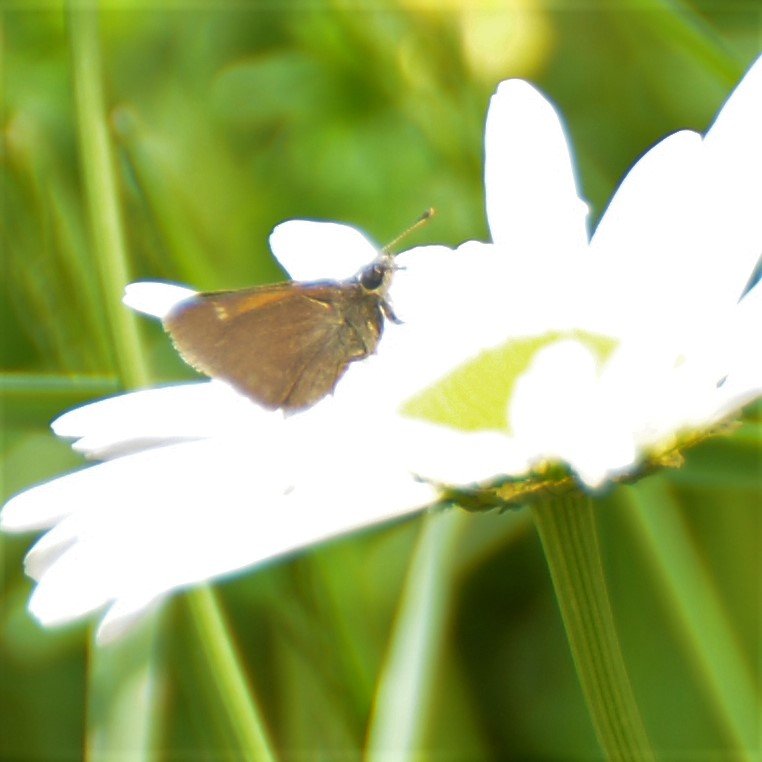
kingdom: Animalia
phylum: Arthropoda
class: Insecta
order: Lepidoptera
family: Hesperiidae
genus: Polites
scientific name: Polites themistocles
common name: Tawny-edged Skipper
